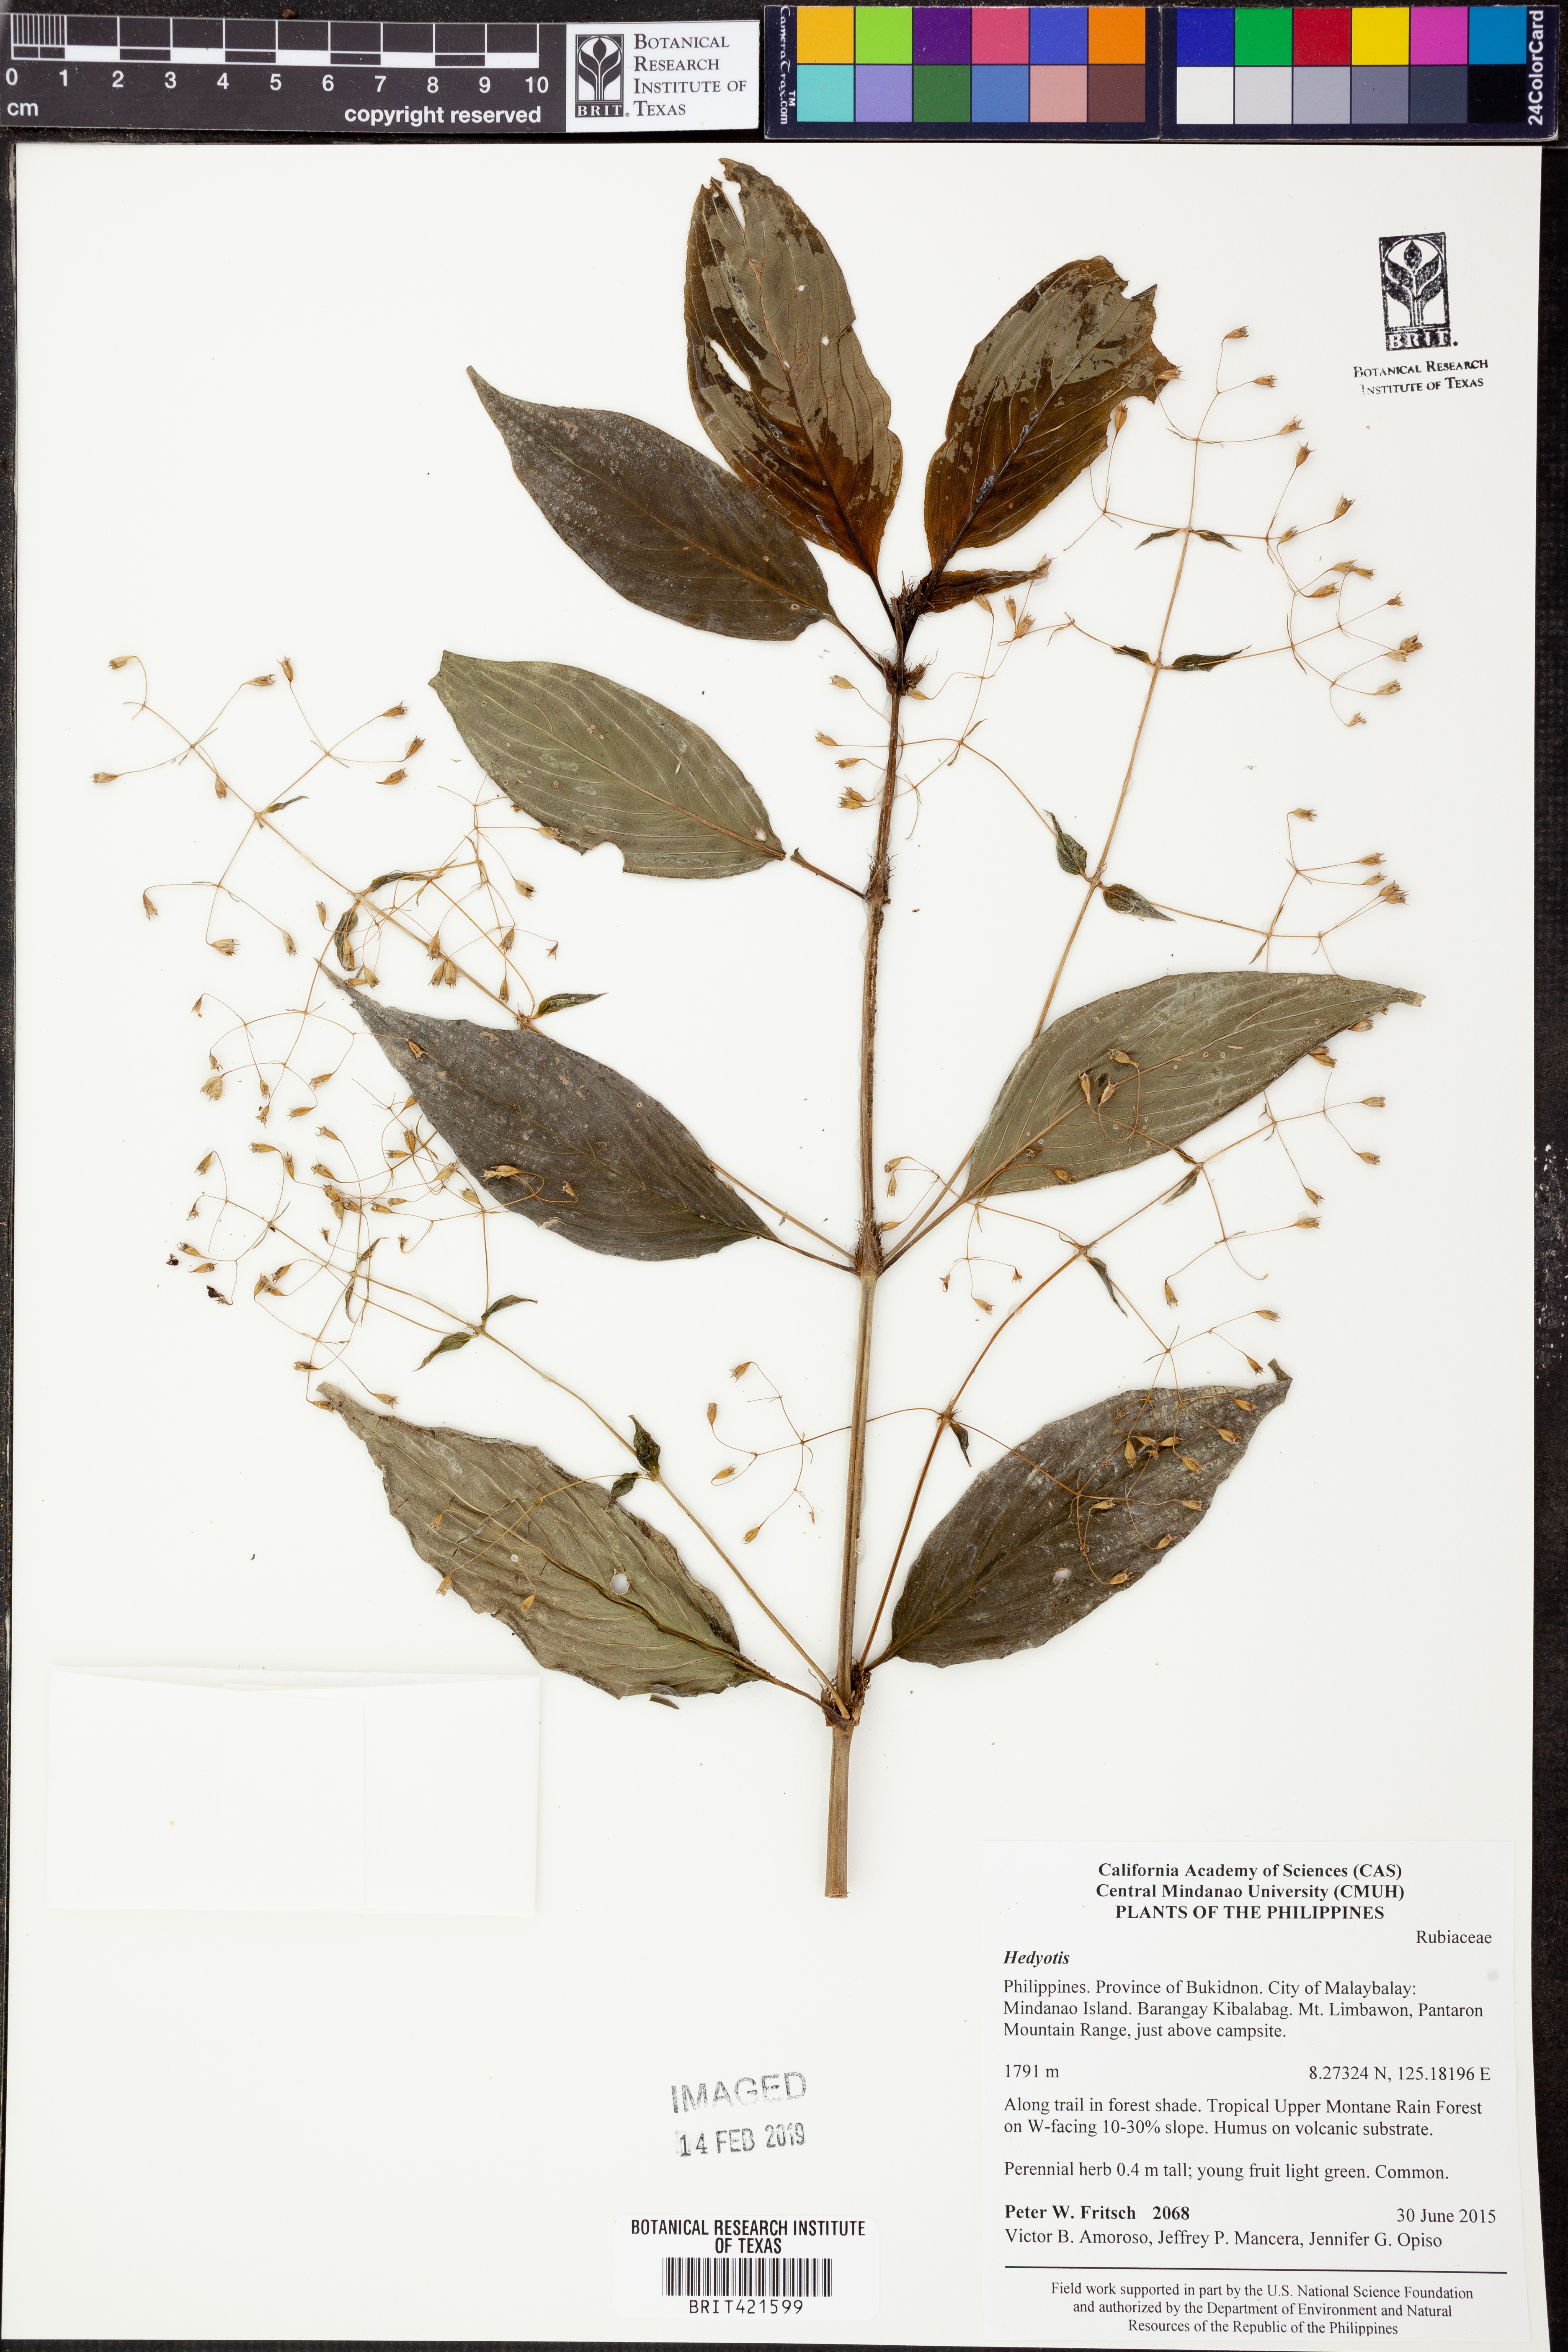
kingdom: Plantae
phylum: Tracheophyta
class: Magnoliopsida
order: Gentianales
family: Rubiaceae
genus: Hedyotis
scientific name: Hedyotis
